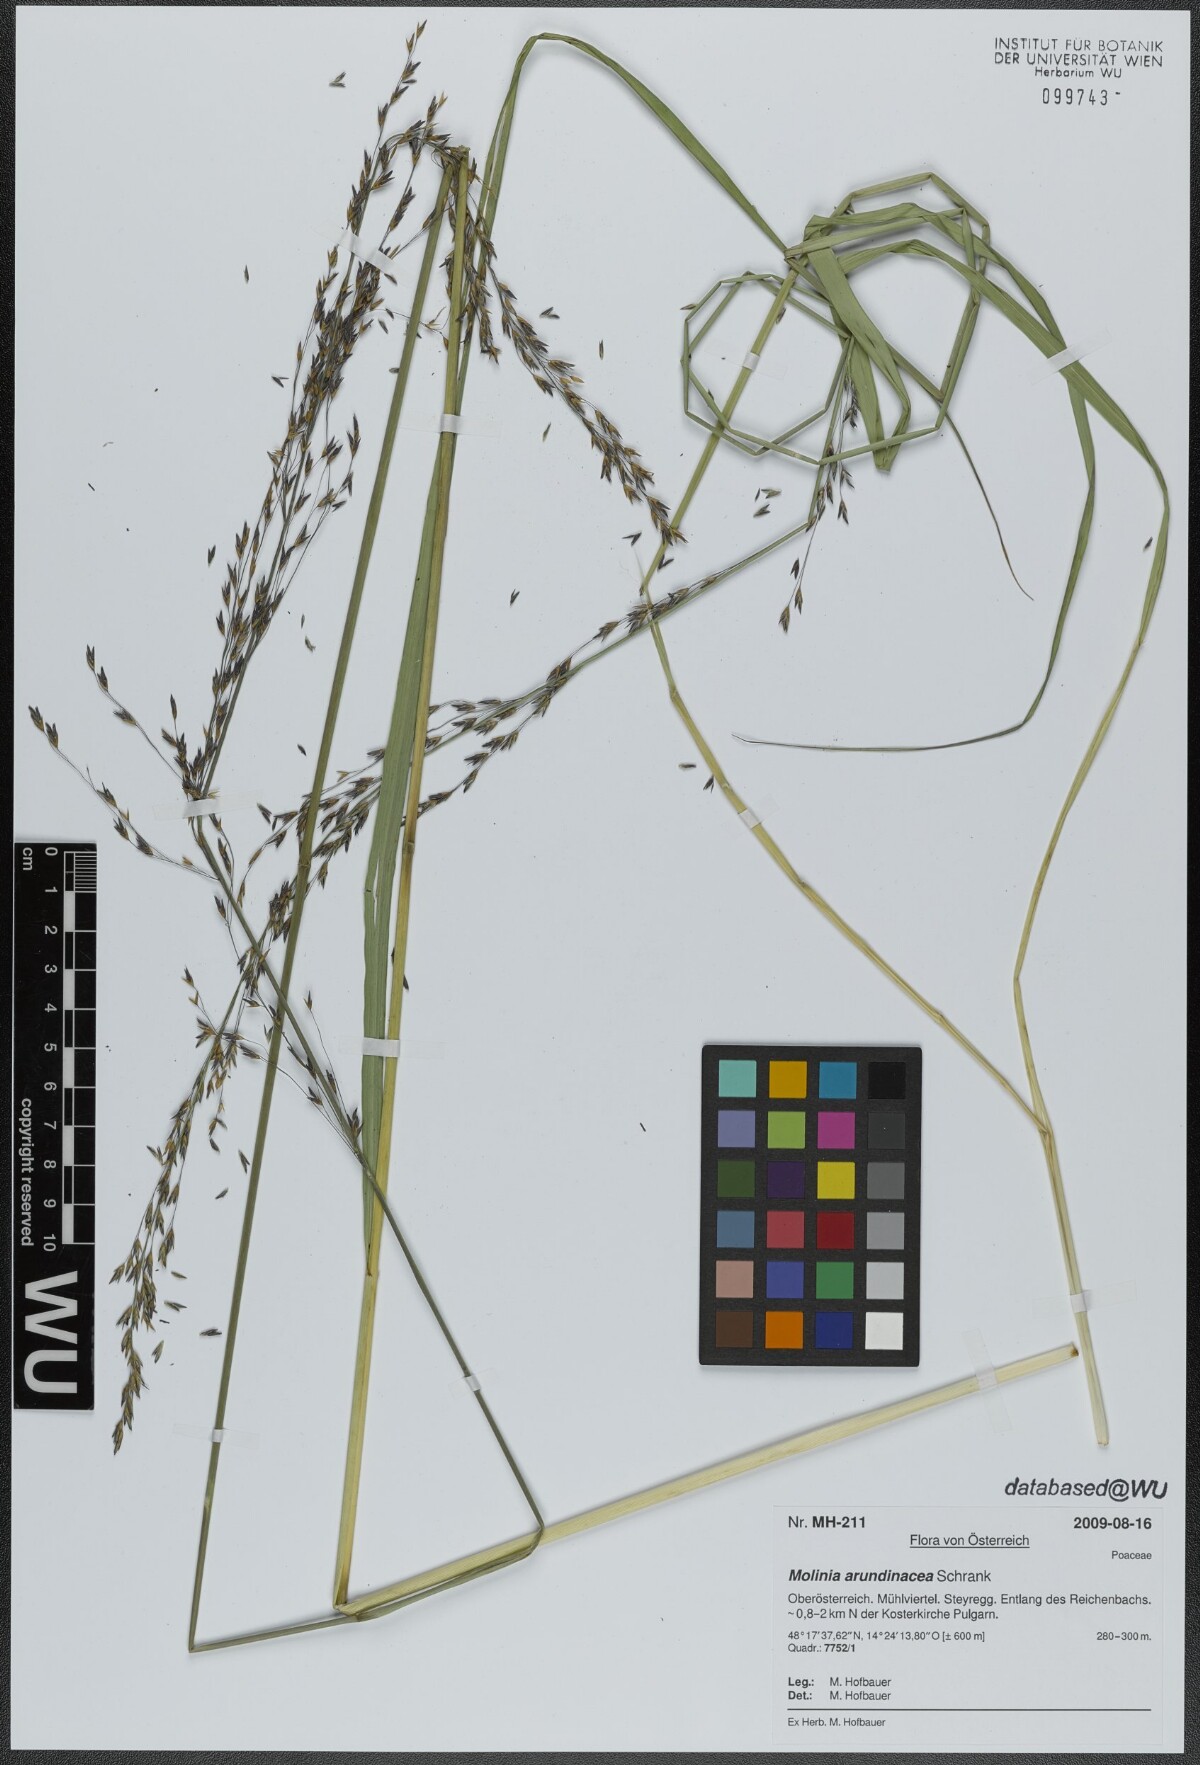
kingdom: Plantae
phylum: Tracheophyta
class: Liliopsida
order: Poales
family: Poaceae
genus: Molinia
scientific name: Molinia arundinacea
